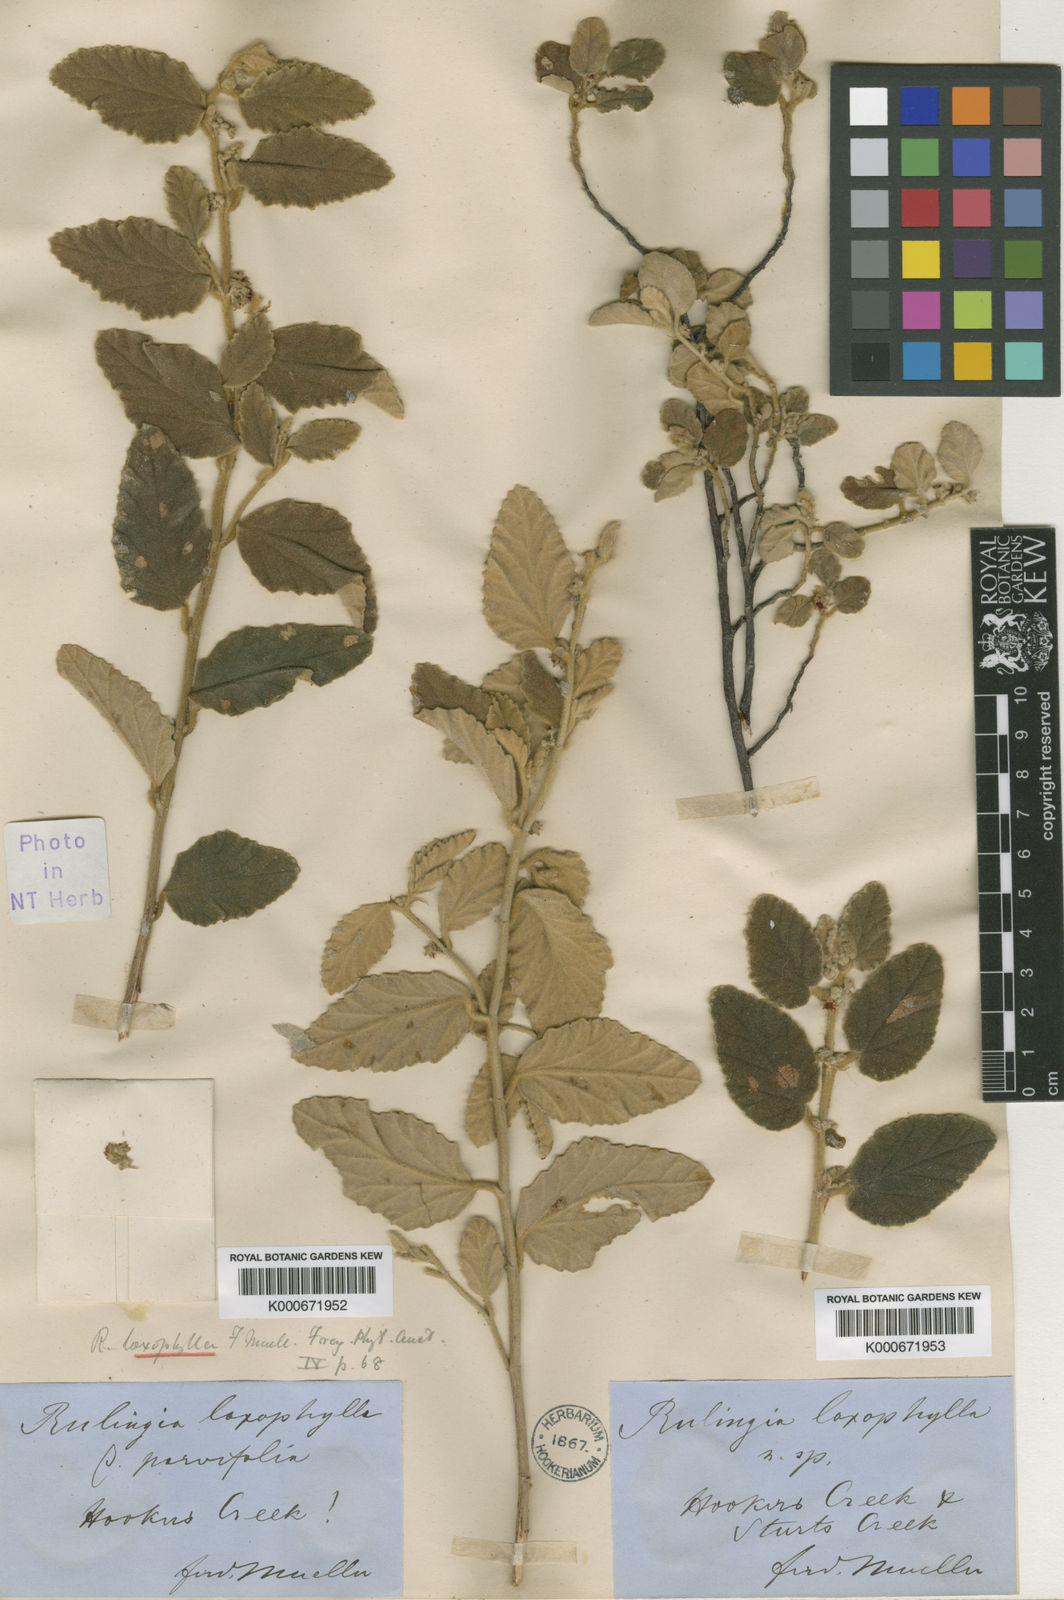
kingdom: Plantae
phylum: Tracheophyta
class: Magnoliopsida
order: Malvales
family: Malvaceae
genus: Androcalva
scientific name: Androcalva loxophylla
